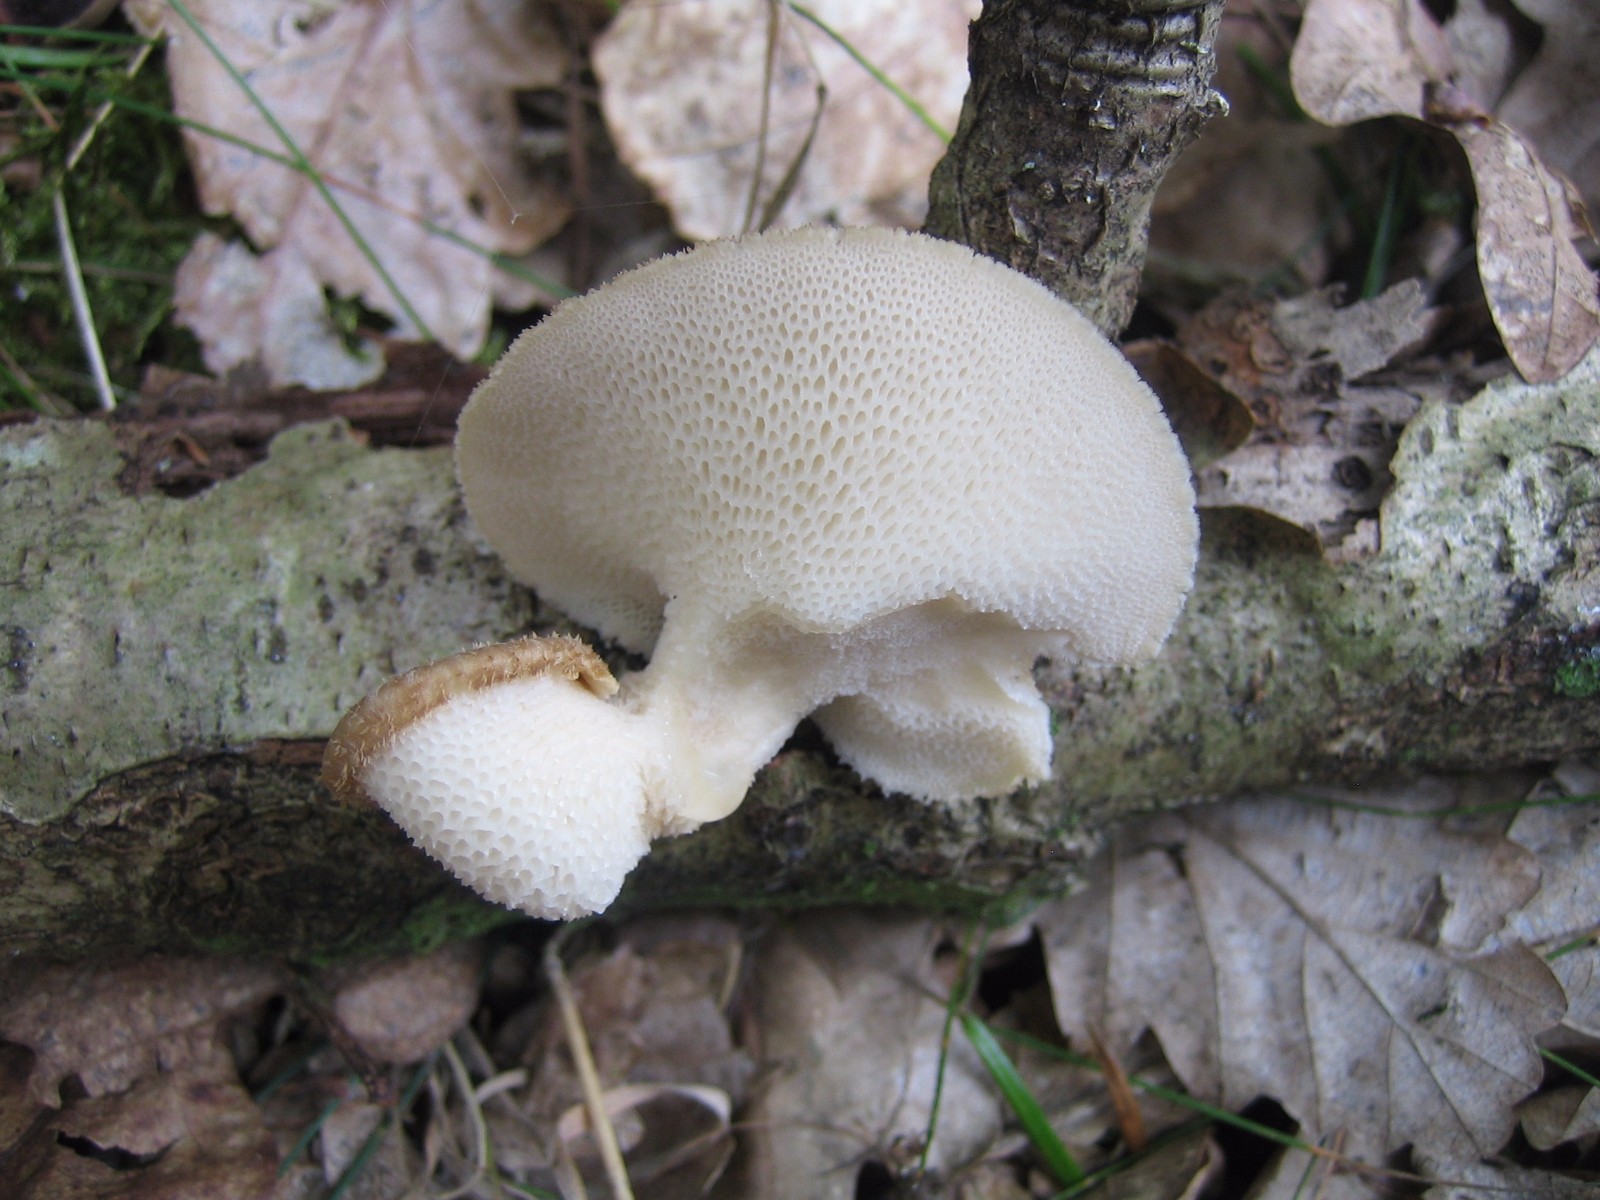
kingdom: Fungi
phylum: Basidiomycota
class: Agaricomycetes
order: Polyporales
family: Polyporaceae
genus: Polyporus
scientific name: Polyporus tuberaster
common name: knoldet stilkporesvamp
